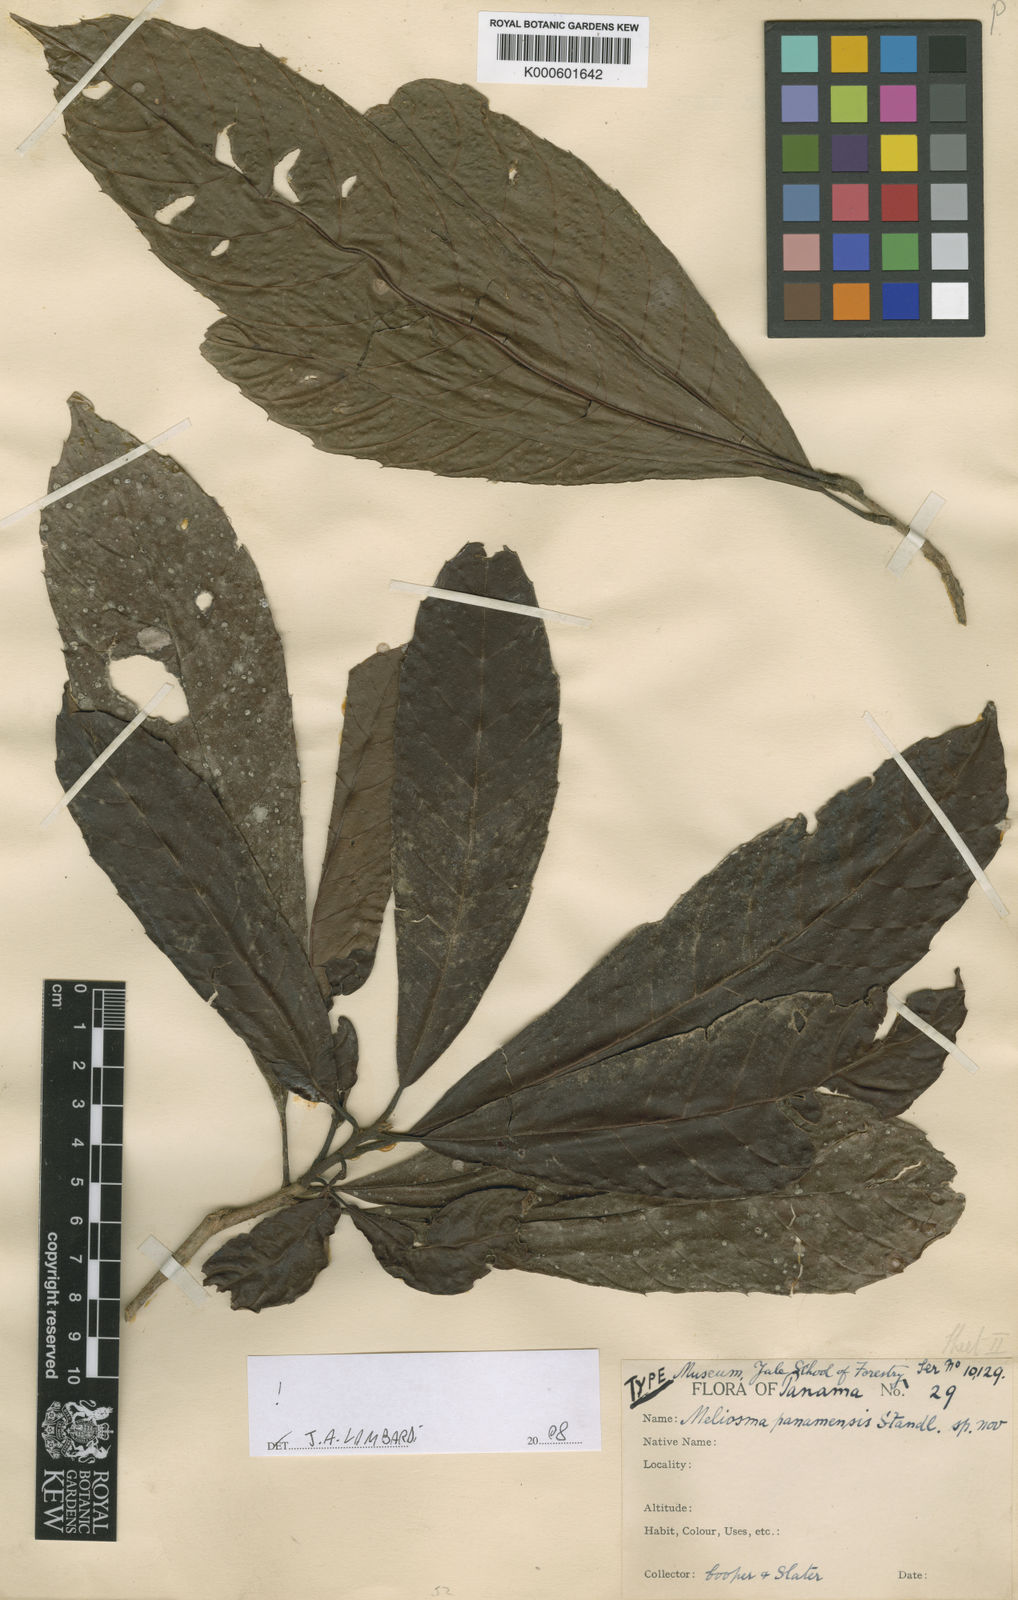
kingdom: Plantae
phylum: Tracheophyta
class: Magnoliopsida
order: Proteales
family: Sabiaceae
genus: Meliosma
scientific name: Meliosma glabrata
